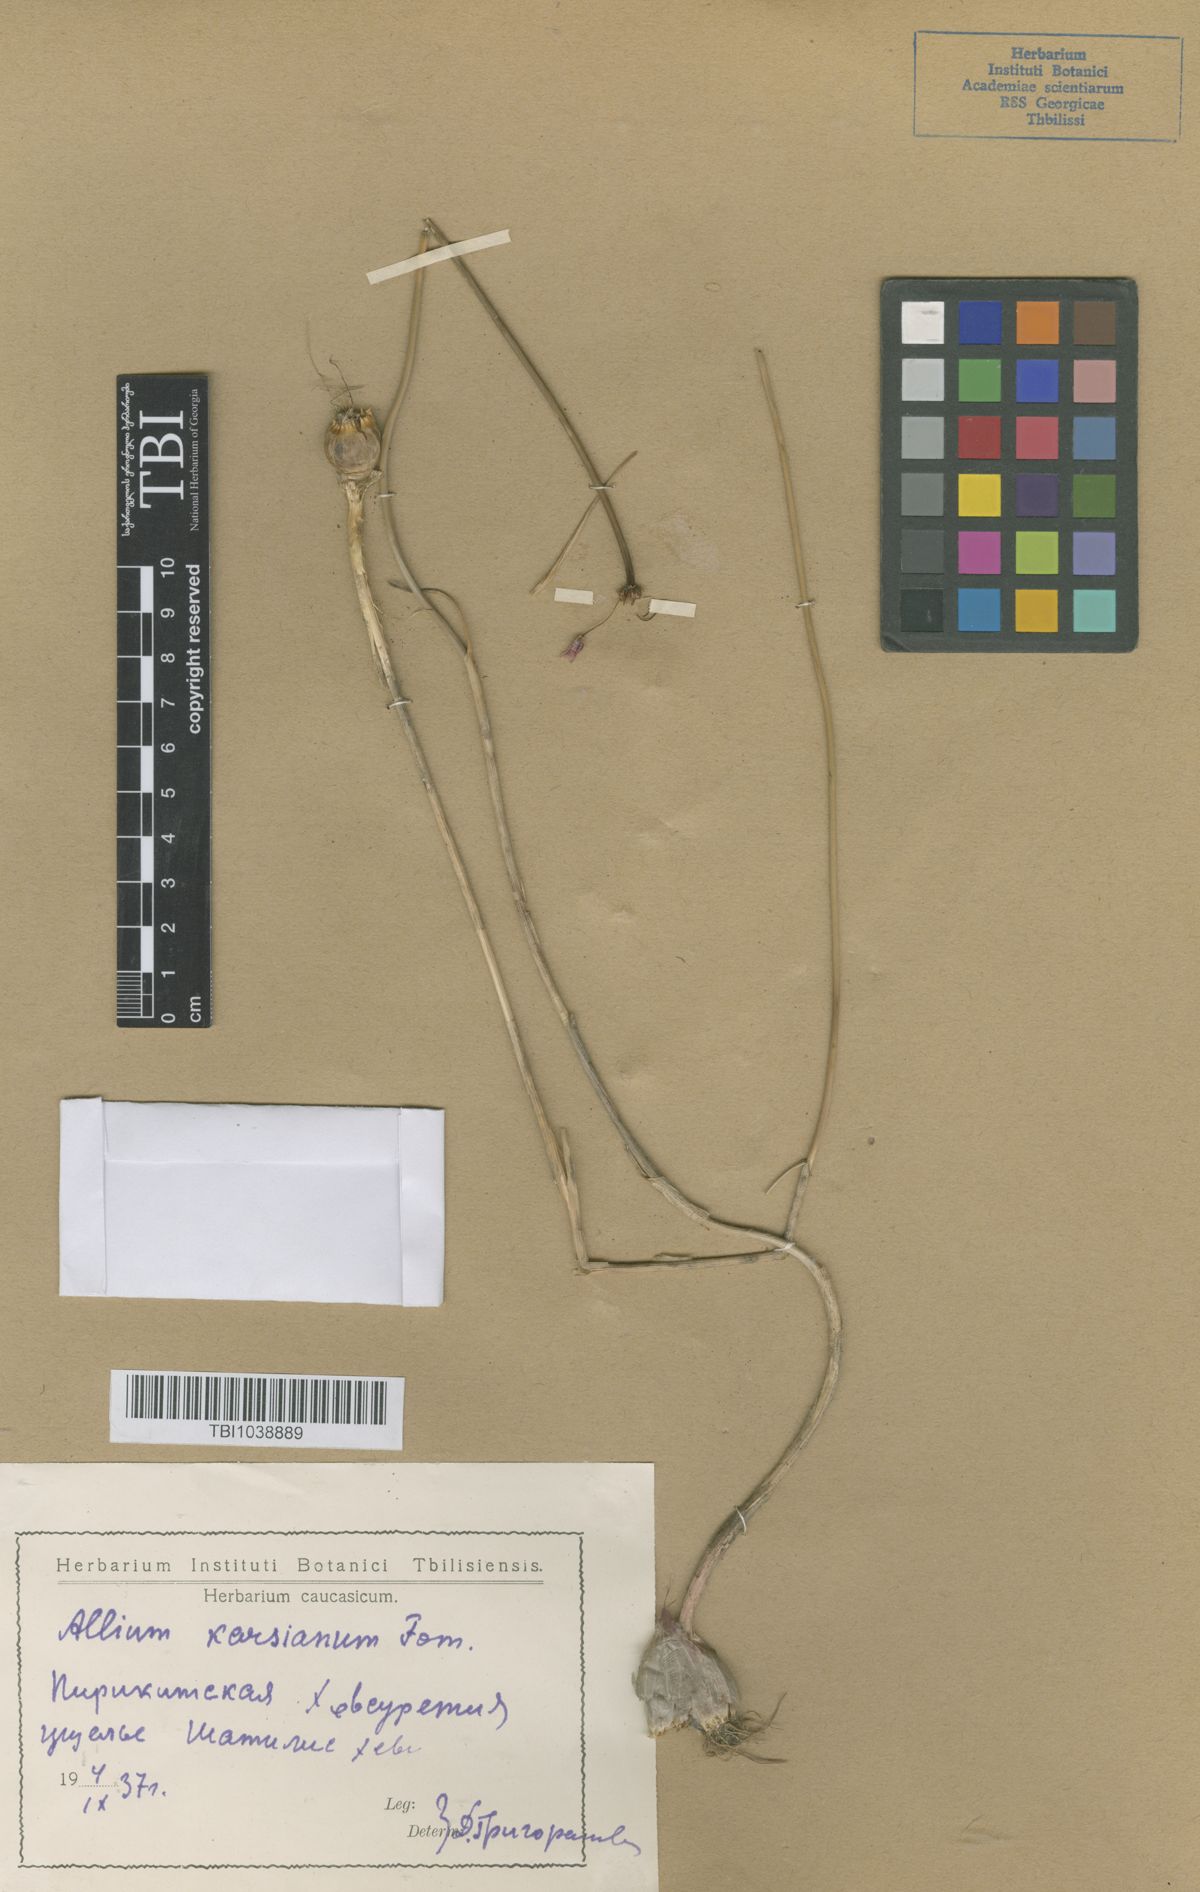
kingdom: Plantae
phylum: Tracheophyta
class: Liliopsida
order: Asparagales
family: Amaryllidaceae
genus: Allium
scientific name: Allium paniculatum
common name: Pale garlic
